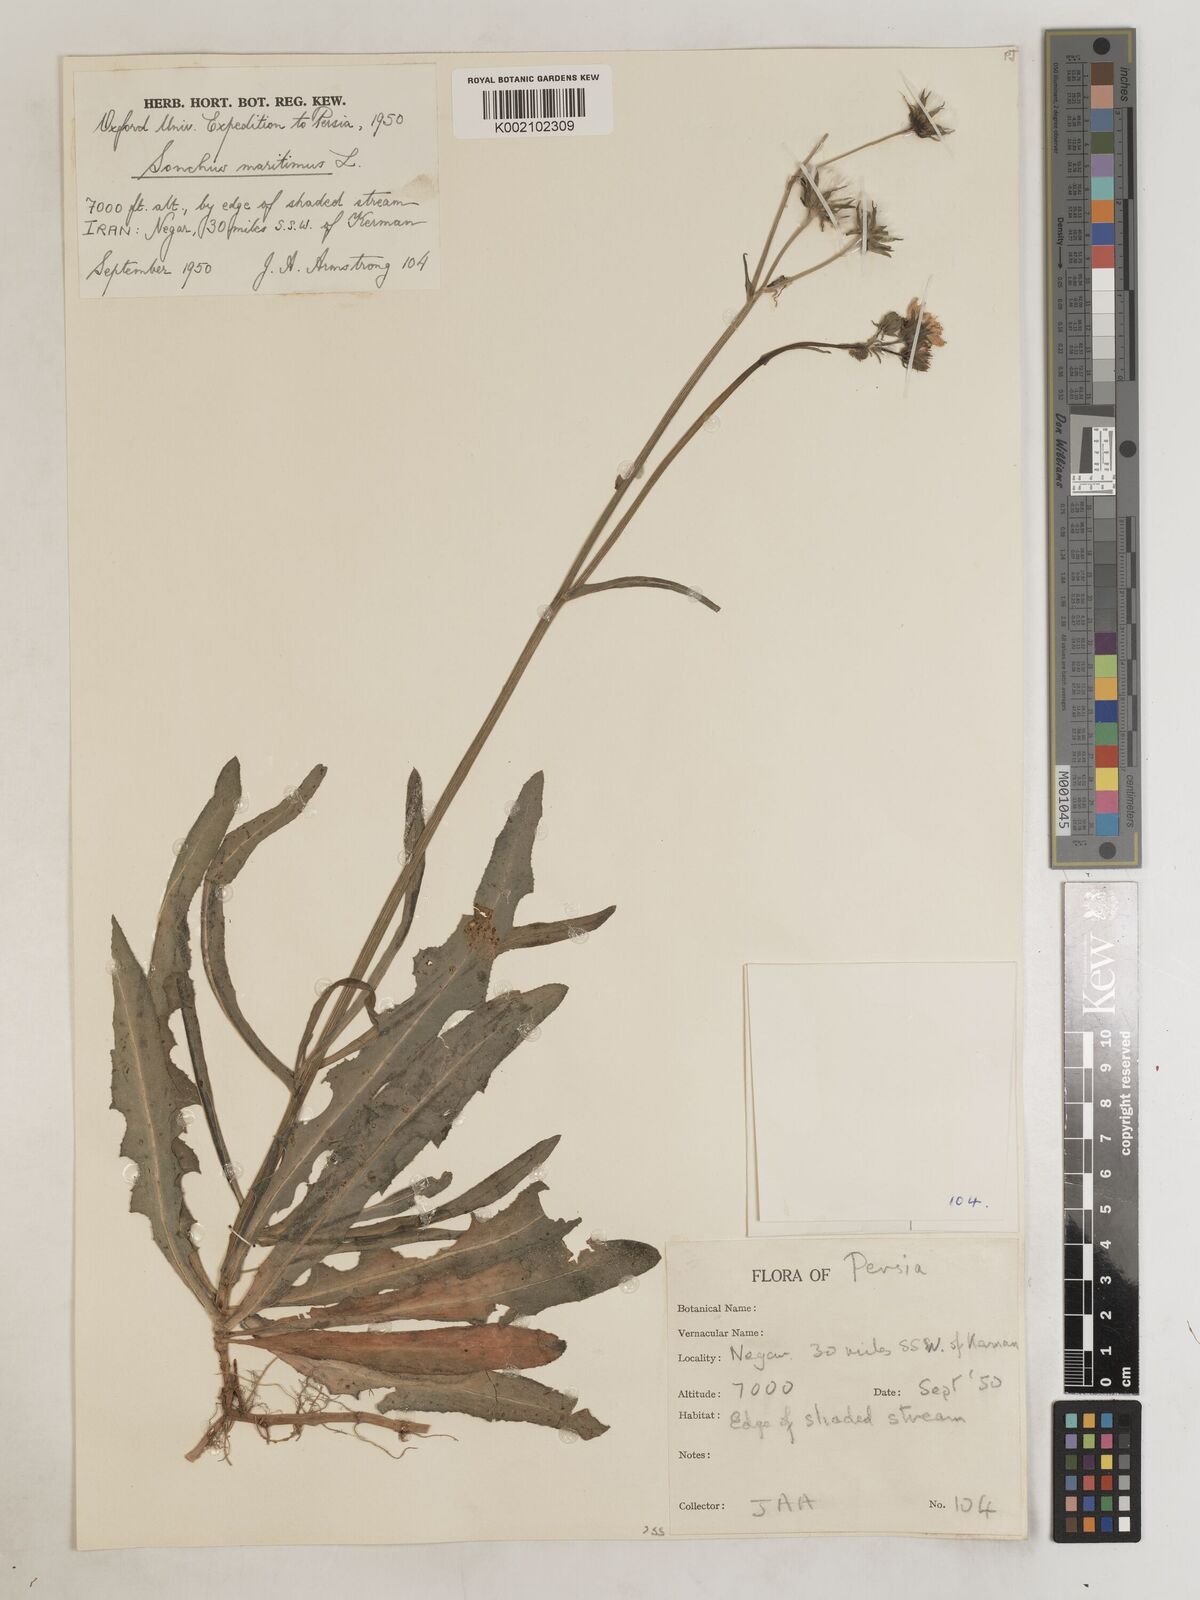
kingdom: Plantae
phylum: Tracheophyta
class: Magnoliopsida
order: Asterales
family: Asteraceae
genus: Sonchus
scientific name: Sonchus maritimus
